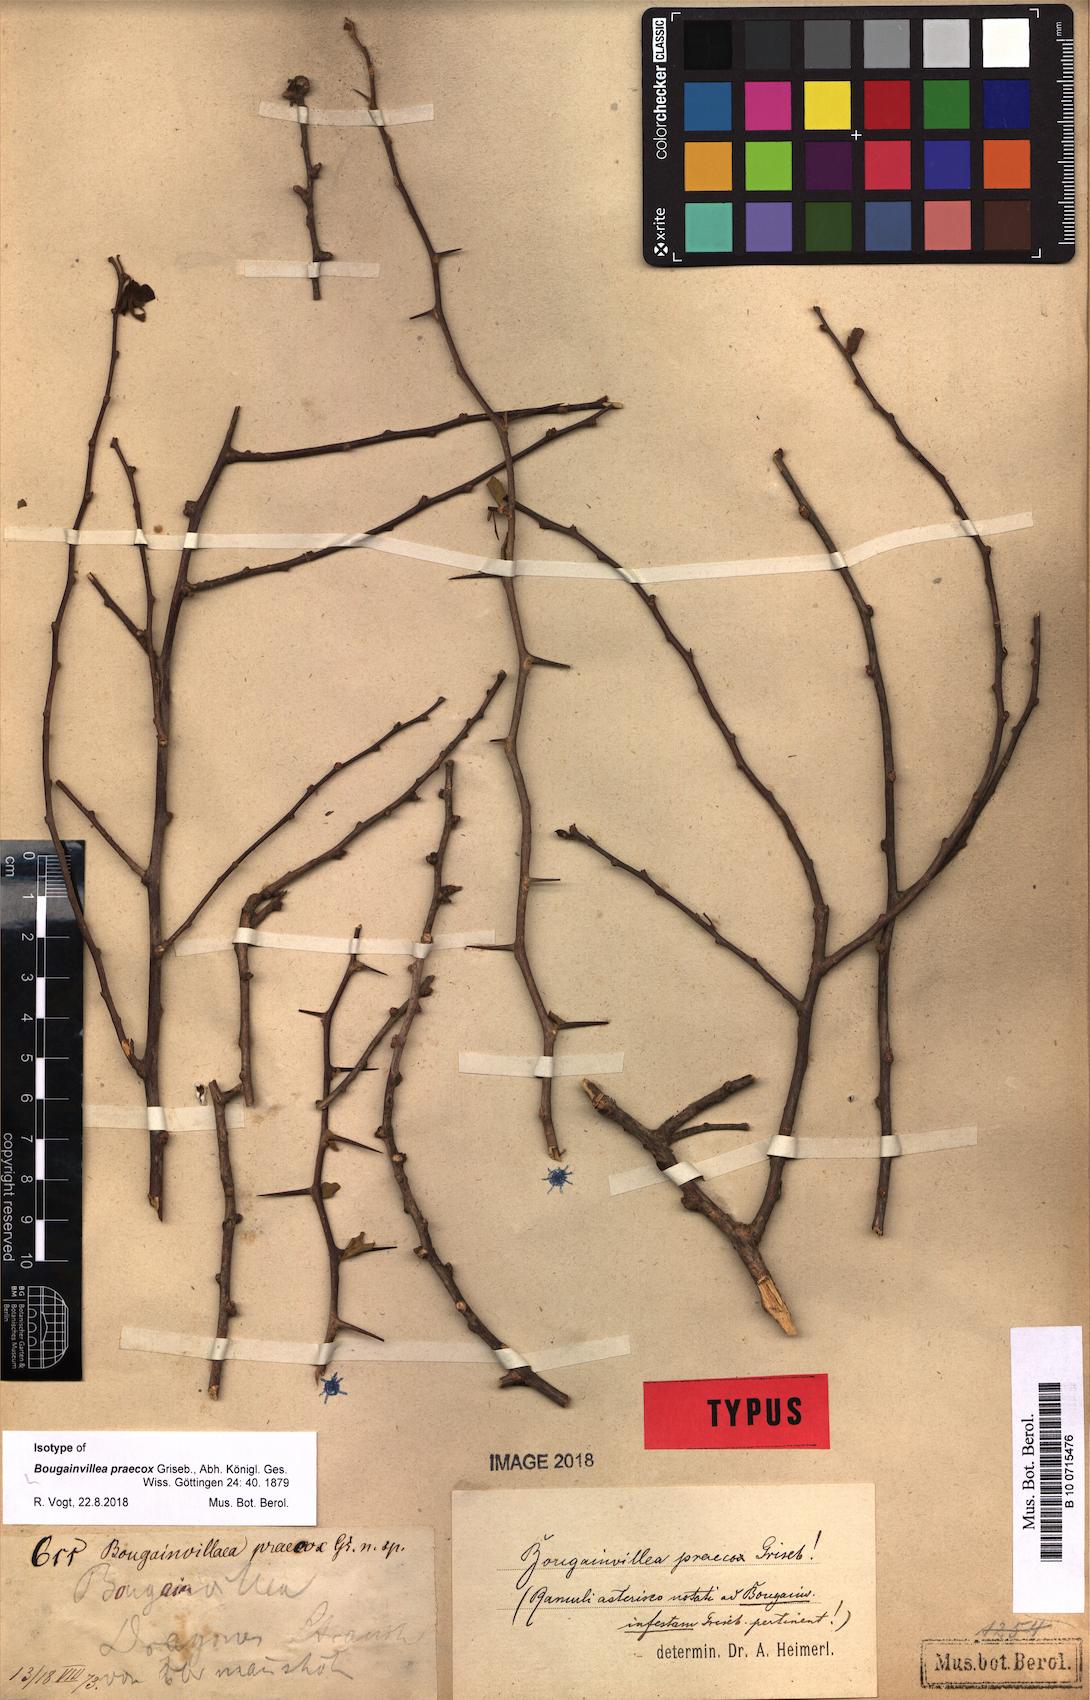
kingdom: Plantae
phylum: Tracheophyta
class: Magnoliopsida
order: Caryophyllales
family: Nyctaginaceae
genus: Bougainvillea
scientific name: Bougainvillea praecox
